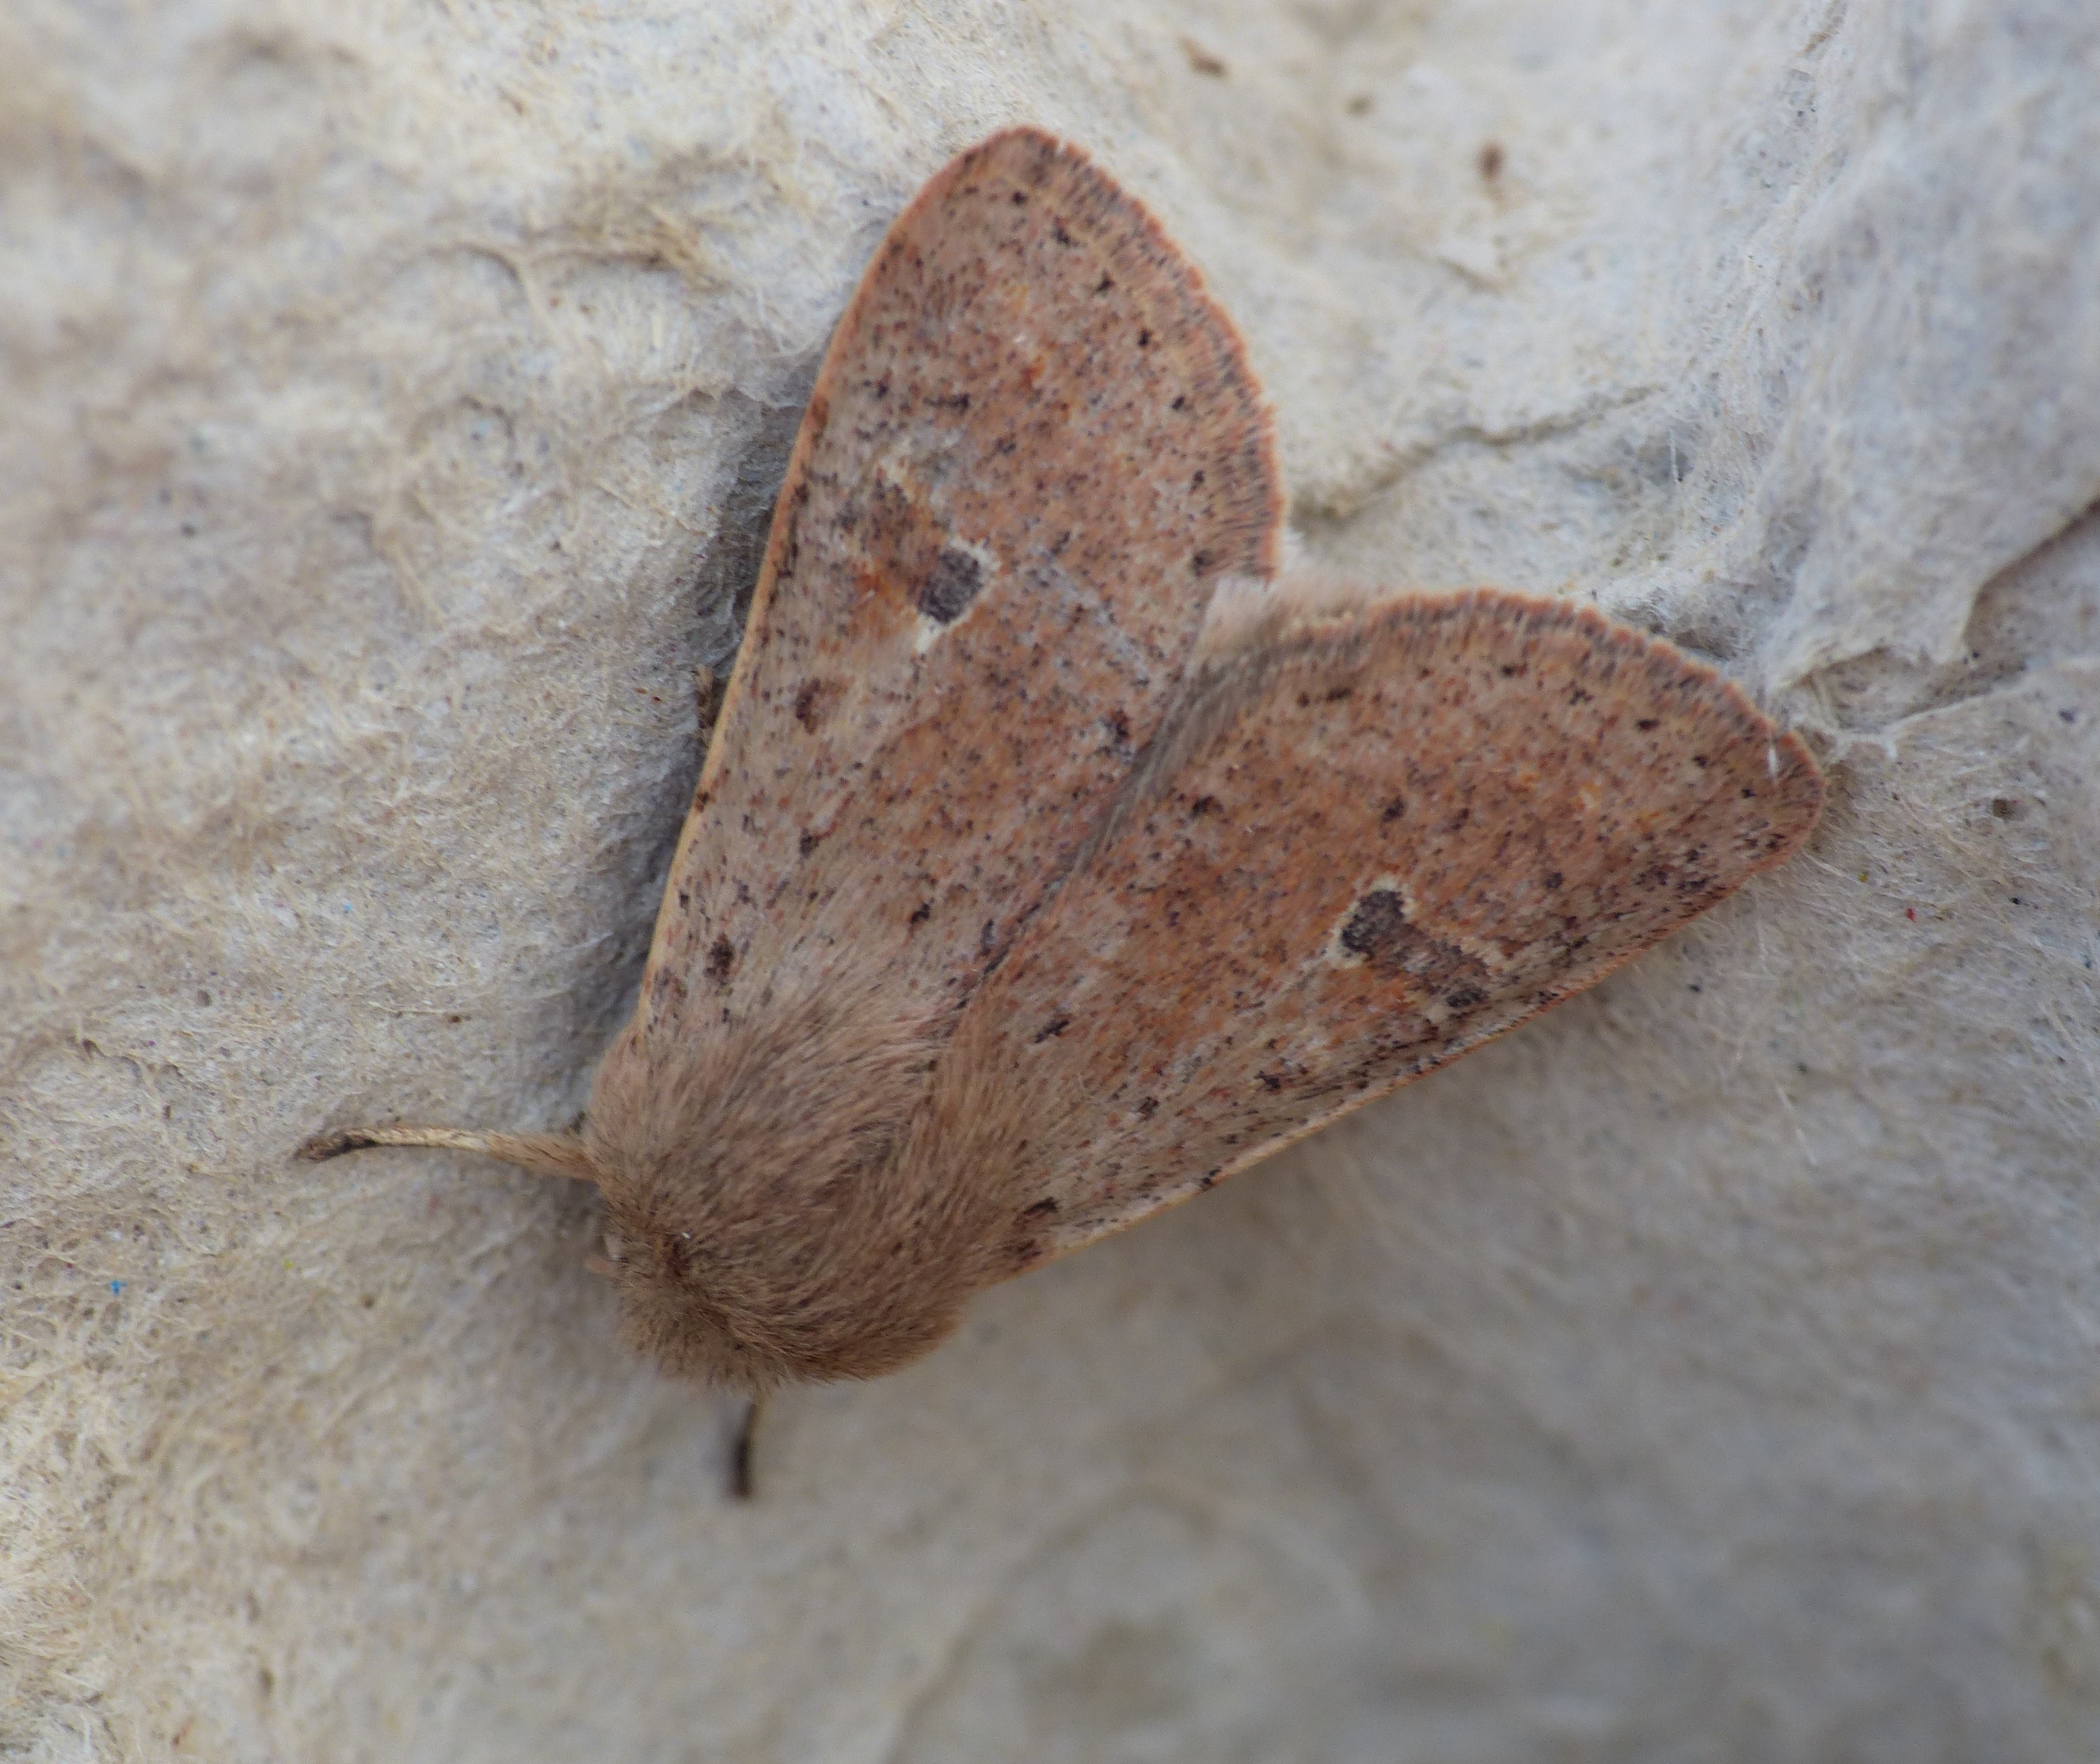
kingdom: Animalia
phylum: Arthropoda
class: Insecta
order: Lepidoptera
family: Noctuidae
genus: Orthosia
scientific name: Orthosia cruda
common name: Lille forårsugle
